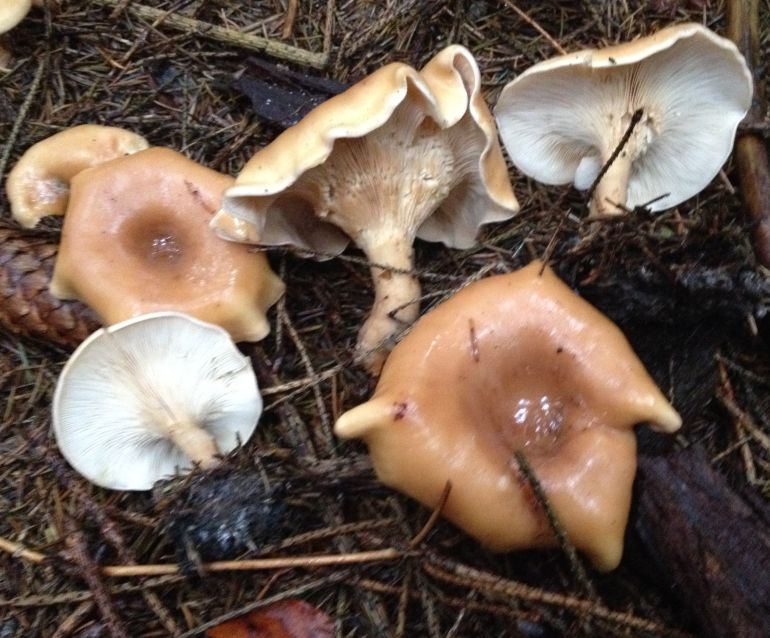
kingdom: Fungi
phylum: Basidiomycota
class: Agaricomycetes
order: Agaricales
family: Tricholomataceae
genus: Paralepista
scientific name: Paralepista flaccida
